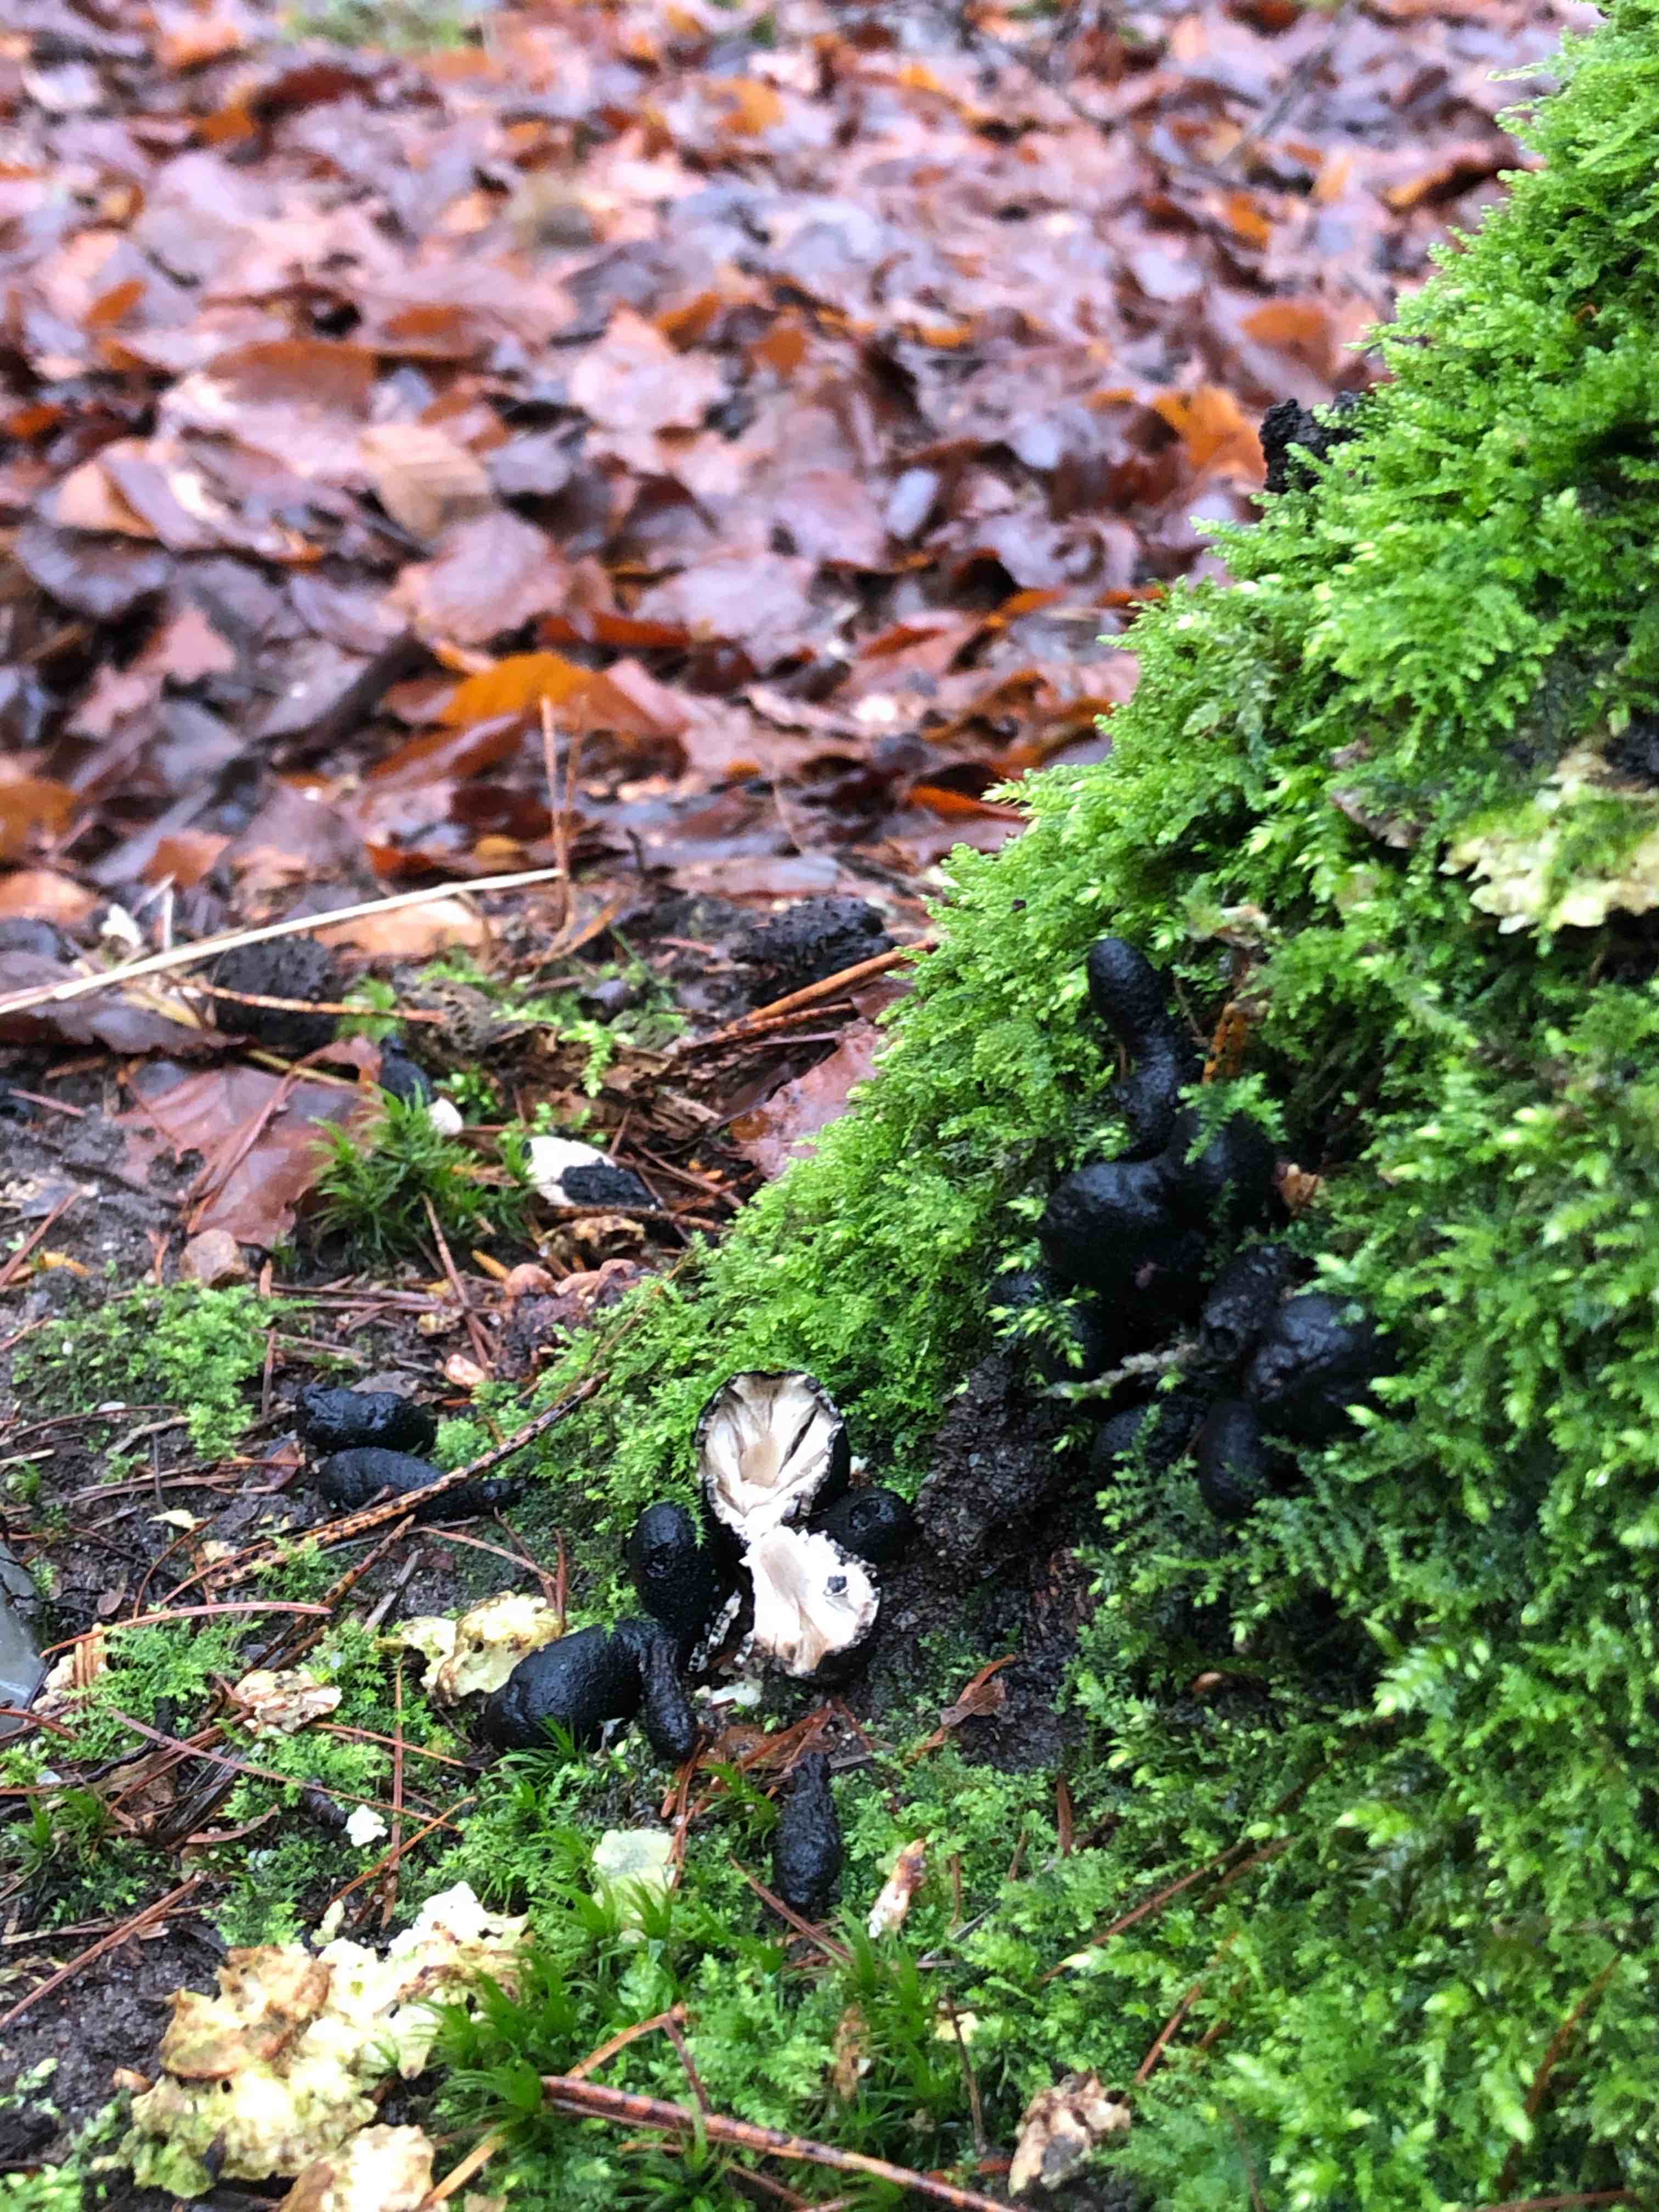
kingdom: Fungi
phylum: Ascomycota
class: Sordariomycetes
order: Xylariales
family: Xylariaceae
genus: Xylaria
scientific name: Xylaria polymorpha
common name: kølle-stødsvamp
